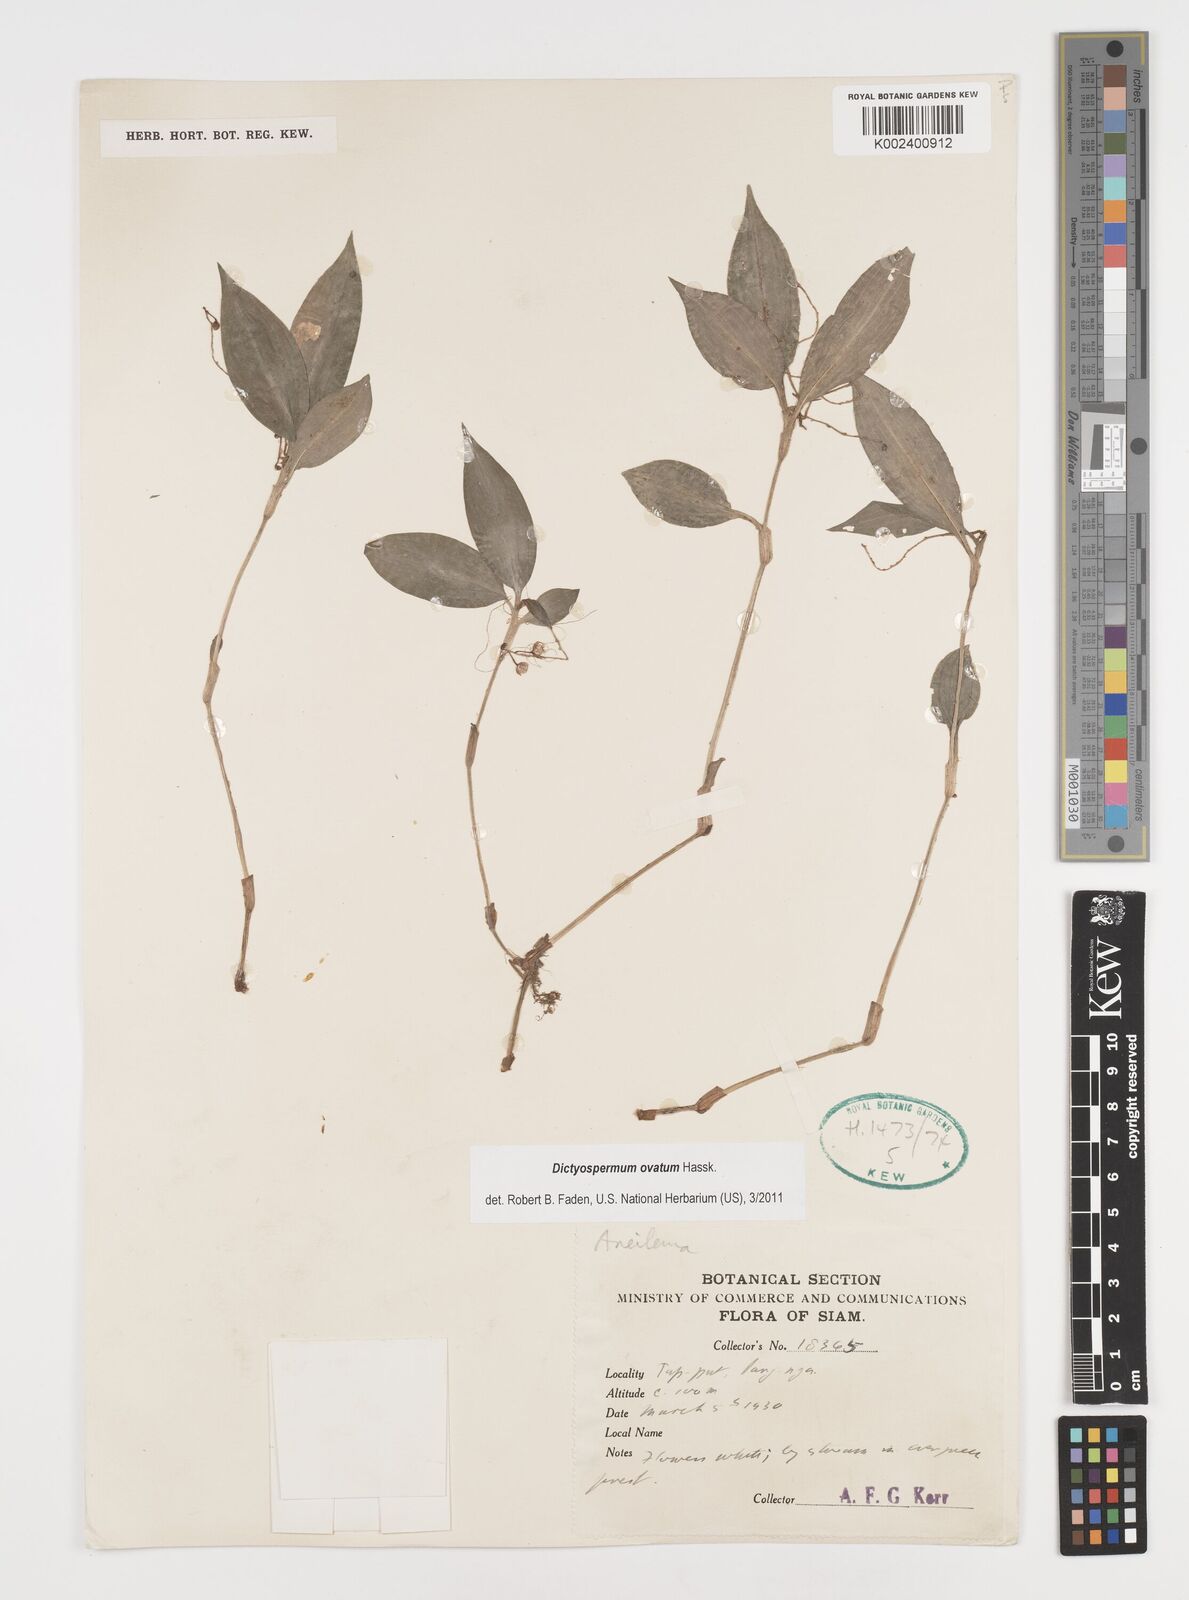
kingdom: Plantae
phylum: Tracheophyta
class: Liliopsida
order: Commelinales
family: Commelinaceae
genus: Dictyospermum
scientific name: Dictyospermum ovatum
